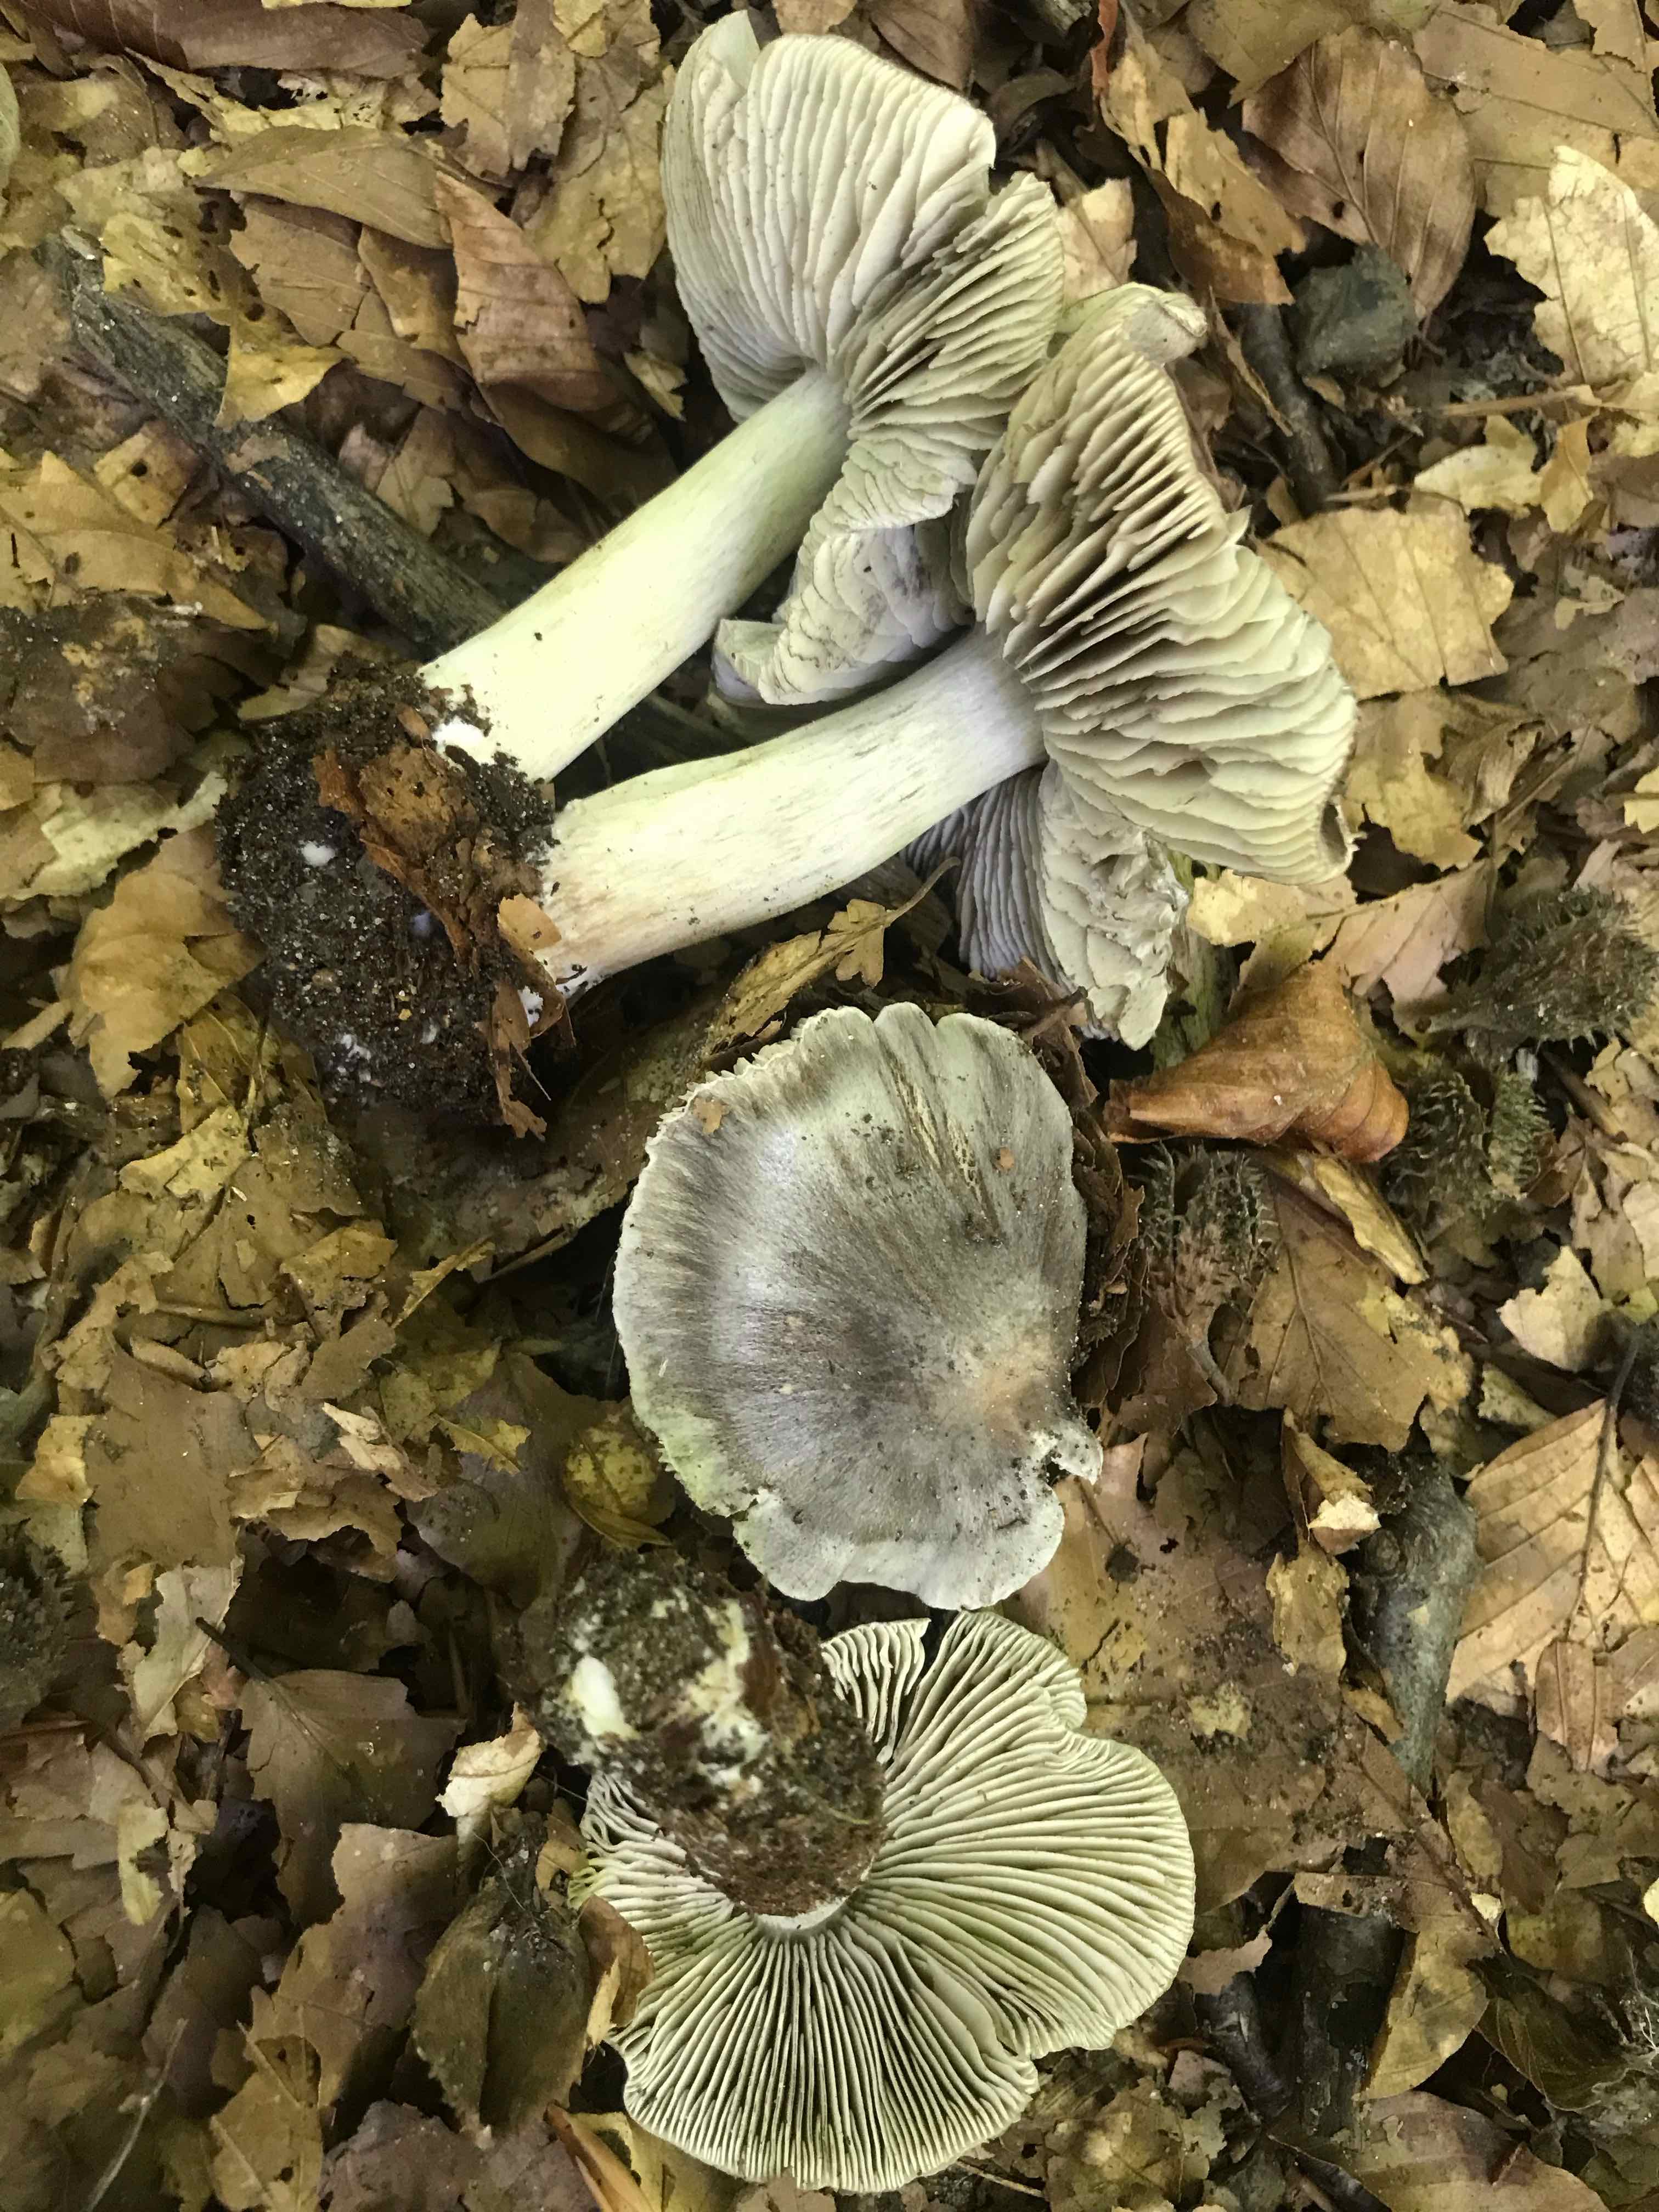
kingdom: Fungi
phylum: Basidiomycota
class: Agaricomycetes
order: Agaricales
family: Tricholomataceae
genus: Tricholoma
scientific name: Tricholoma sciodes
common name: stribet ridderhat
